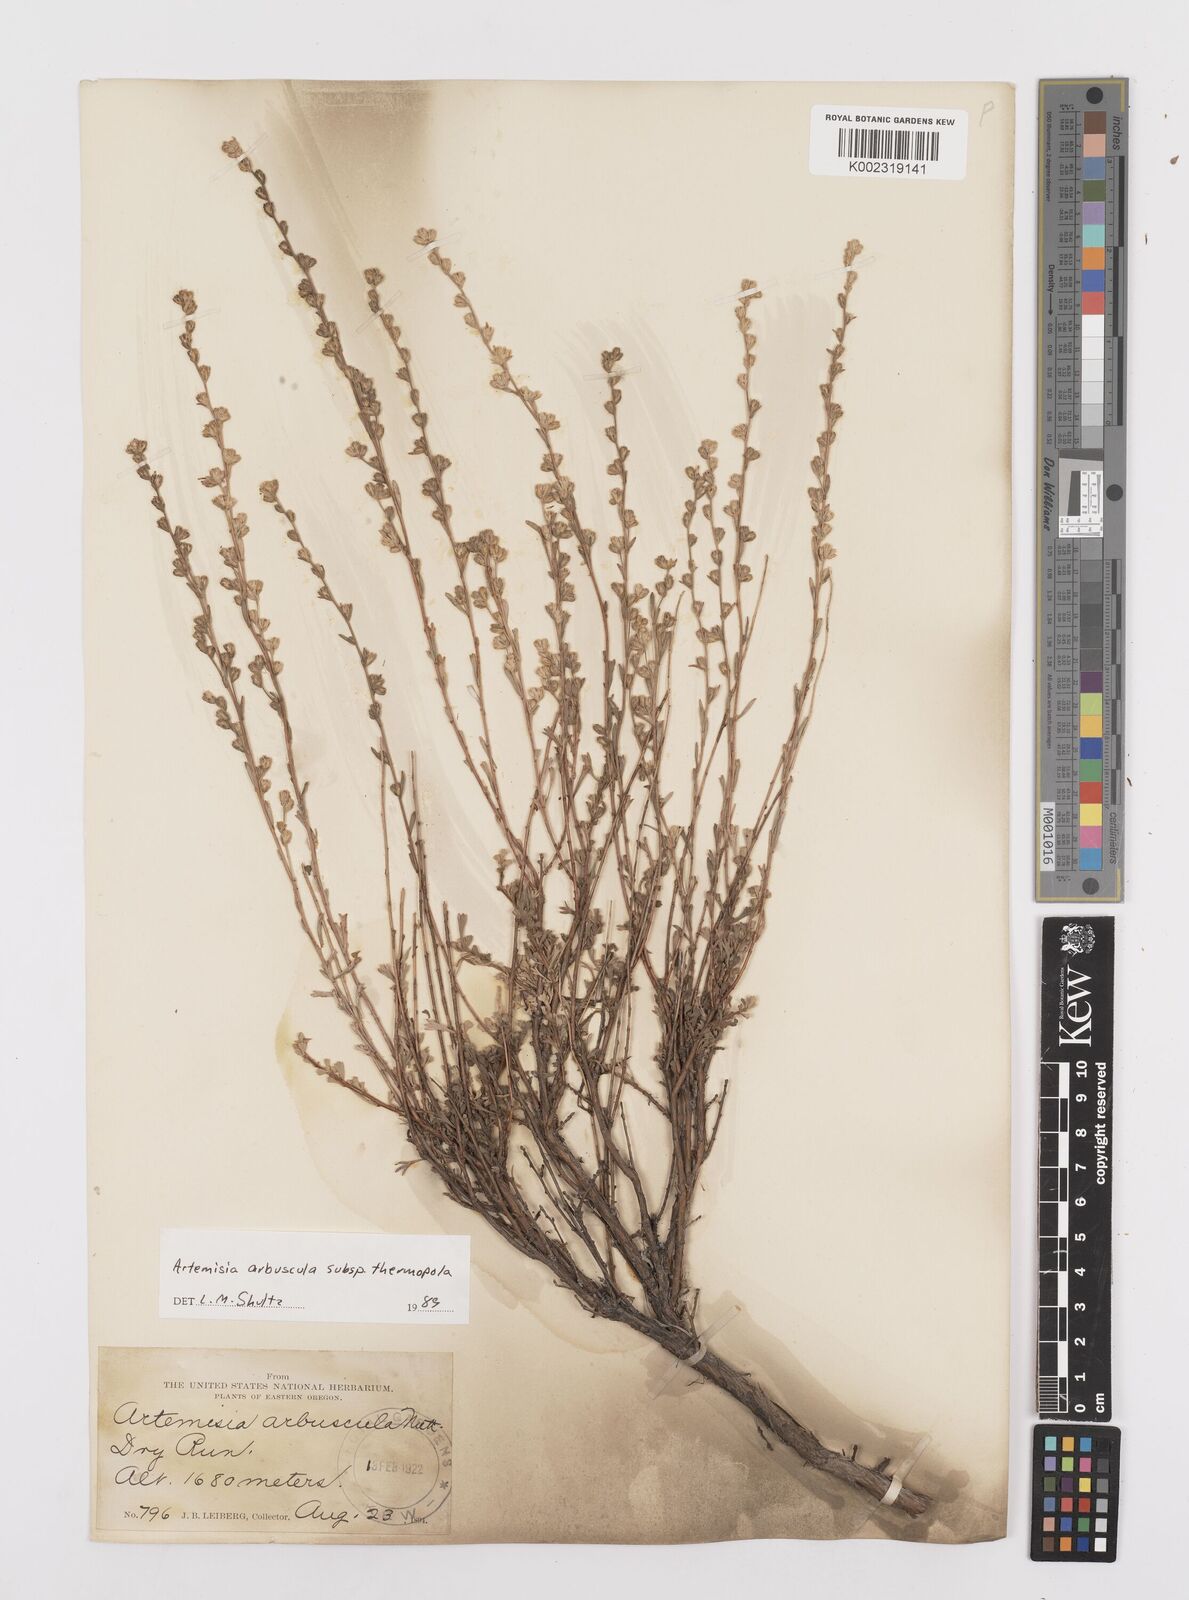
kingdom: Plantae
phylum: Tracheophyta
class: Magnoliopsida
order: Asterales
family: Asteraceae
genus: Artemisia
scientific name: Artemisia arbuscula
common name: Sagebrush
